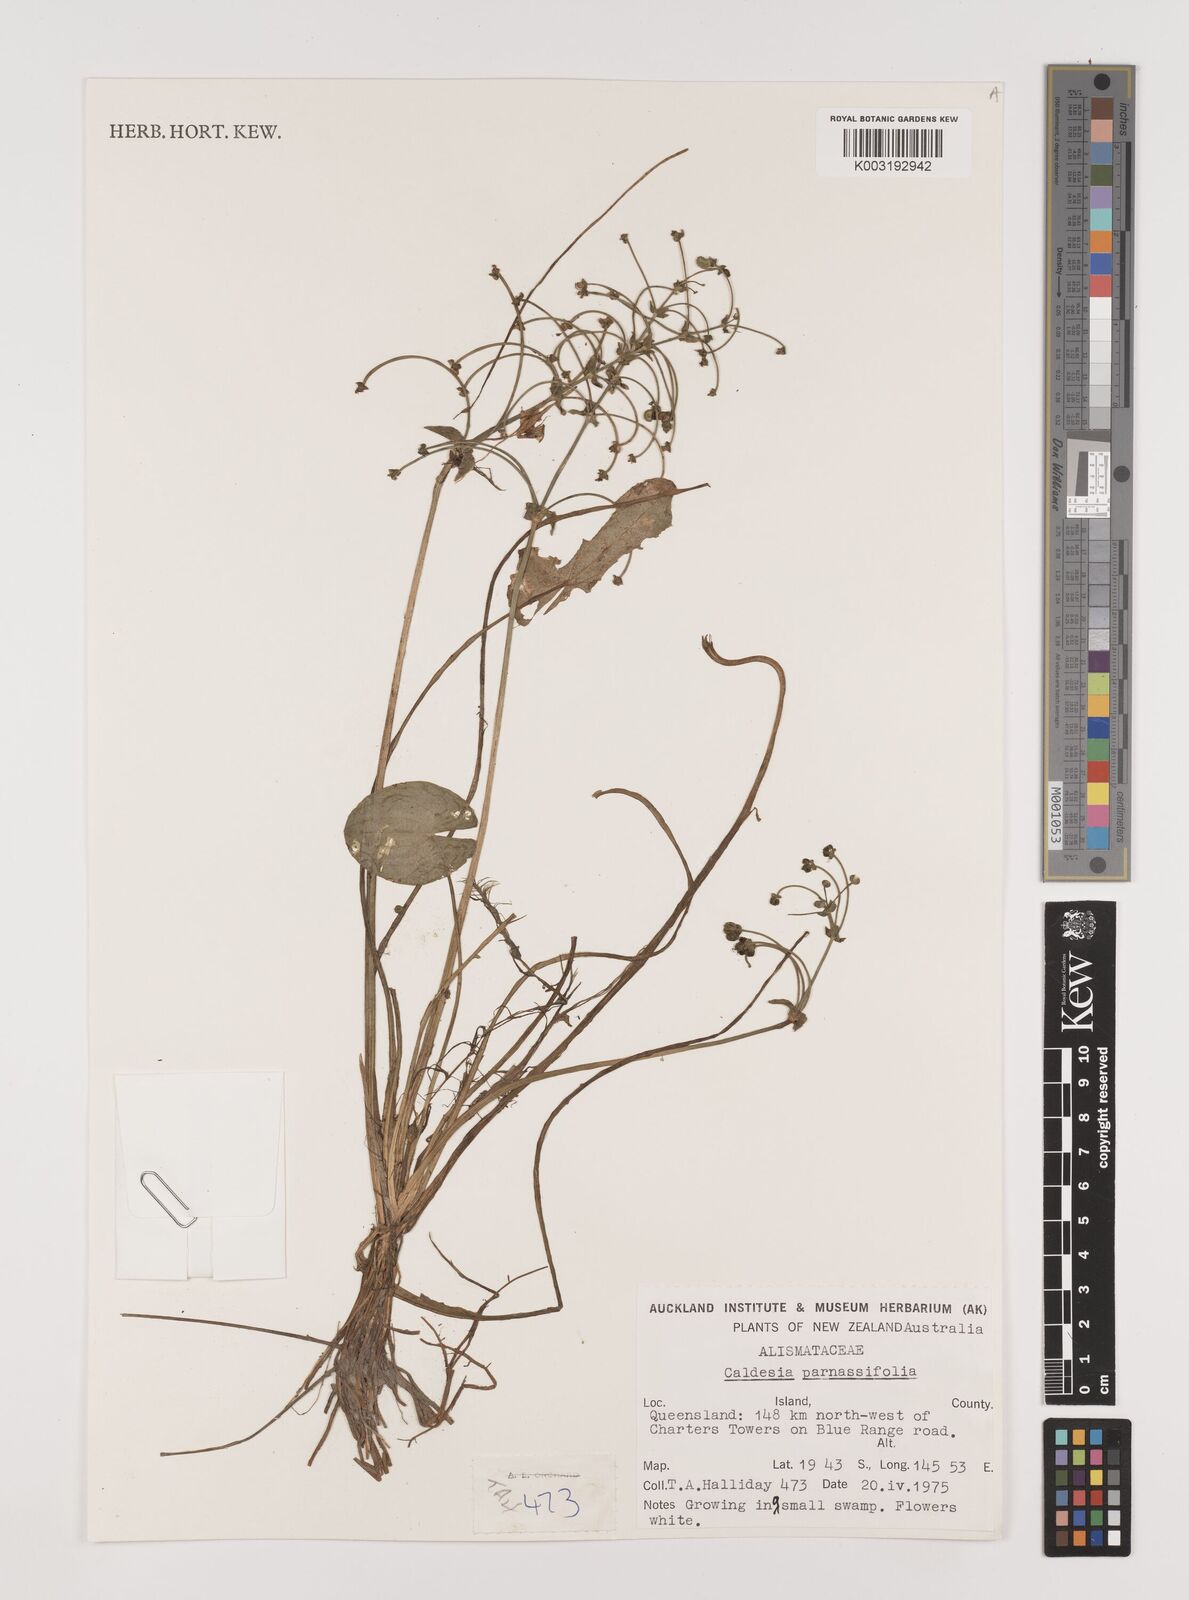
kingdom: Plantae
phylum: Tracheophyta
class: Liliopsida
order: Alismatales
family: Alismataceae
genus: Caldesia
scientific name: Caldesia parnassifolia
